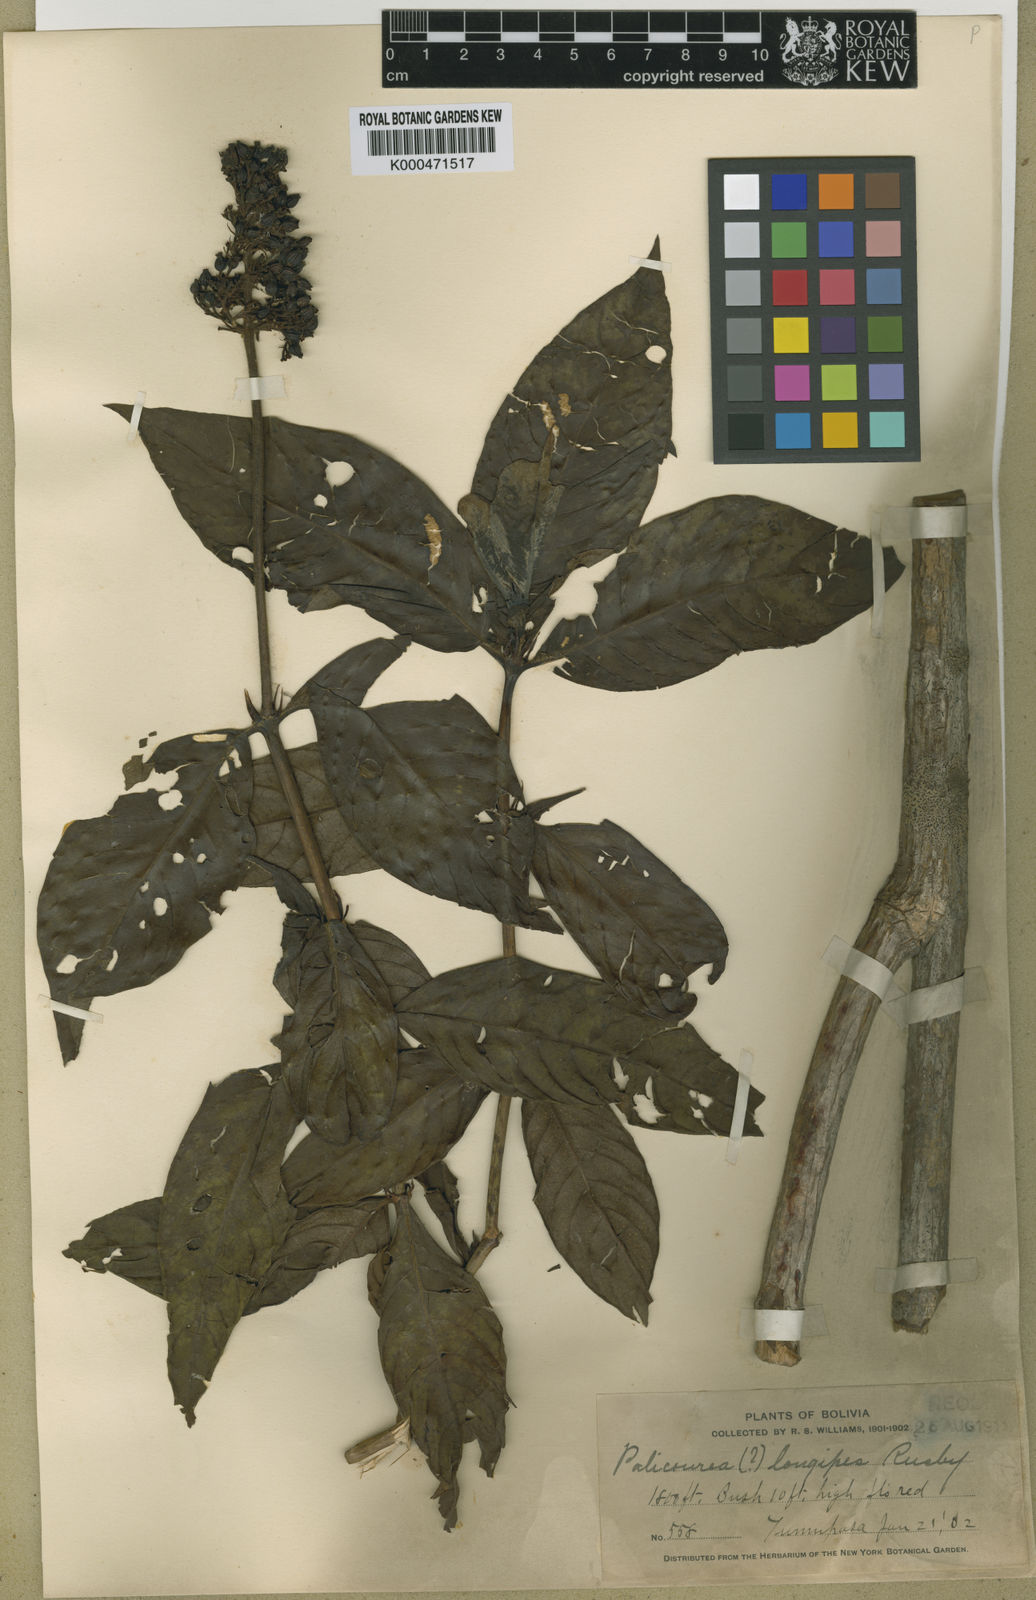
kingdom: Plantae
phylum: Tracheophyta
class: Magnoliopsida
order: Gentianales
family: Rubiaceae
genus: Palicourea
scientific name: Palicourea triphylla
